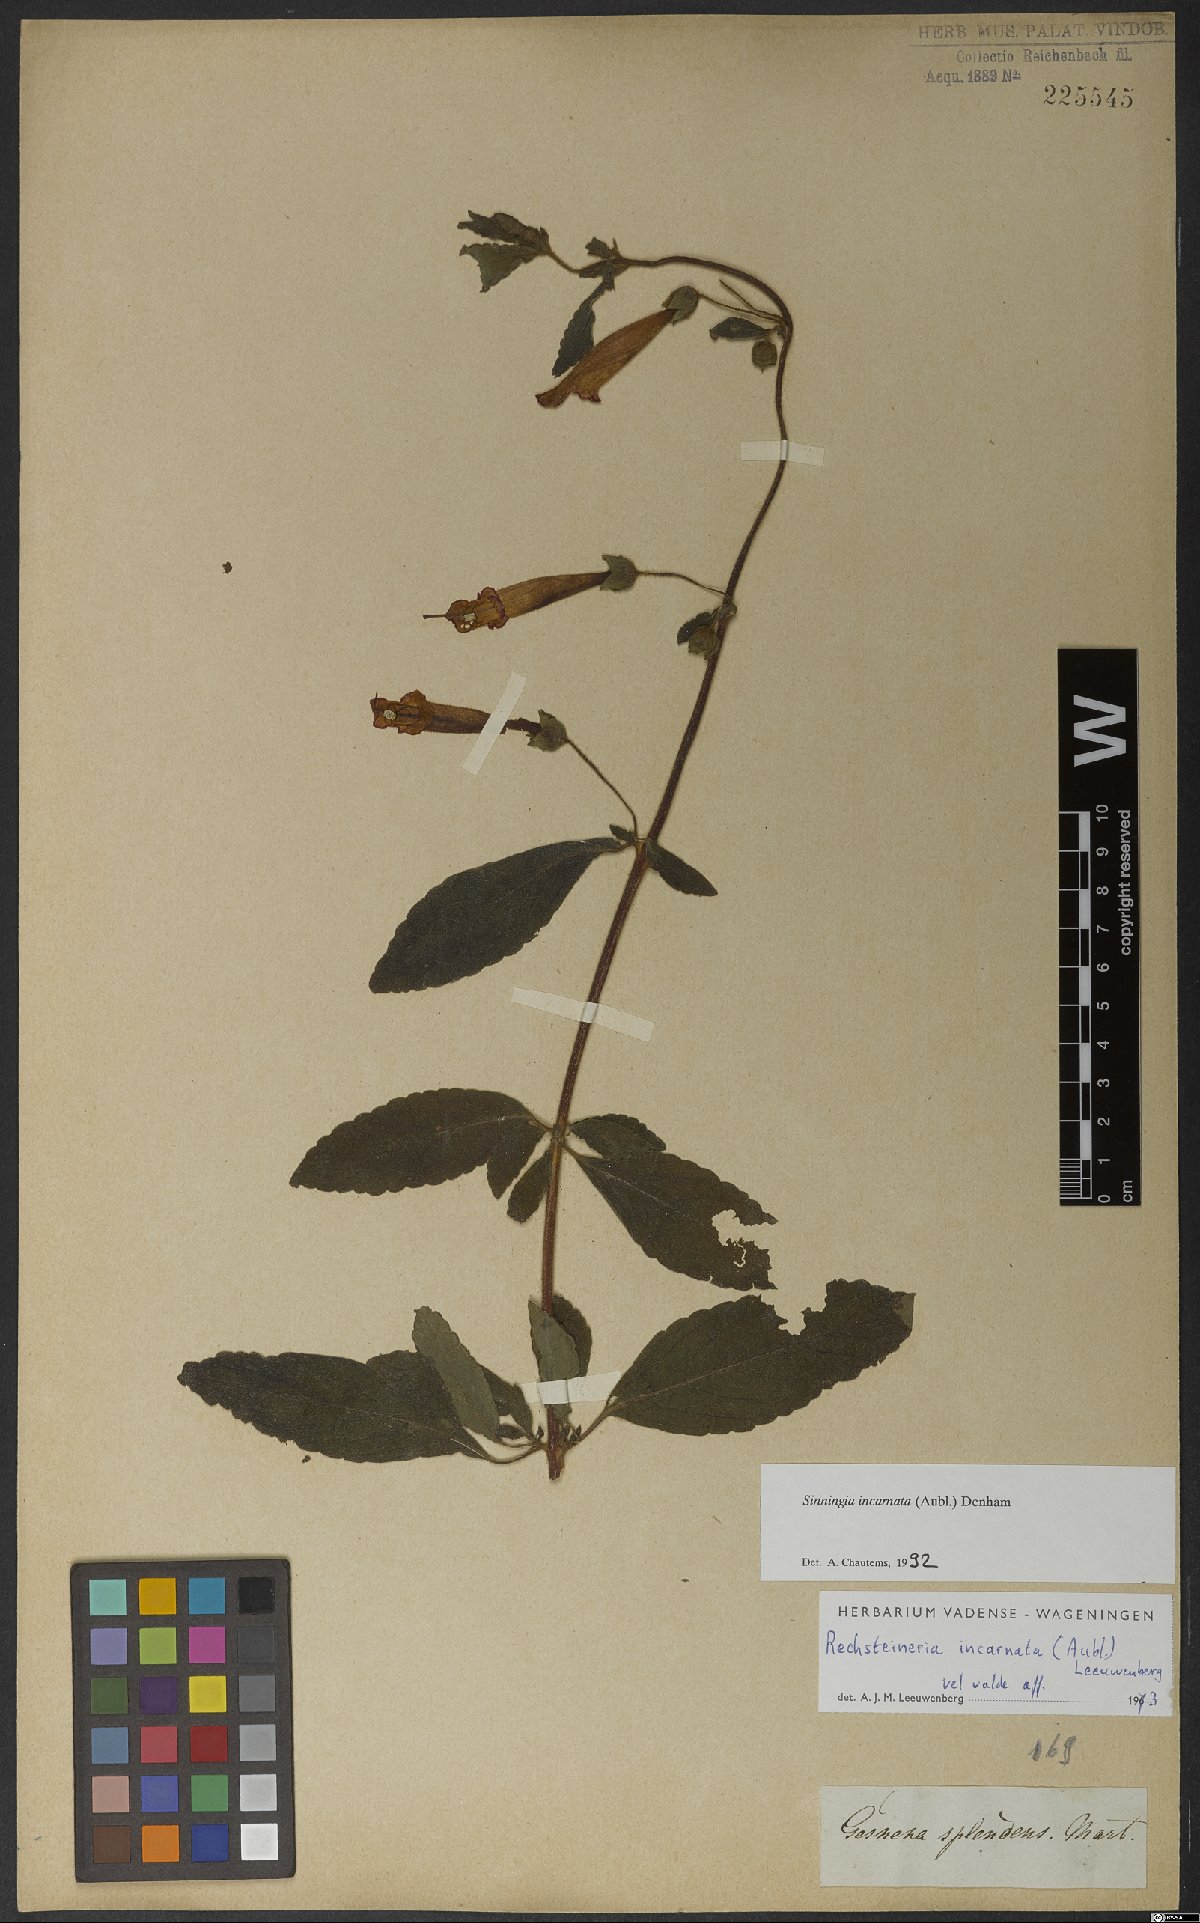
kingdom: Plantae
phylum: Tracheophyta
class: Magnoliopsida
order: Lamiales
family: Gesneriaceae
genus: Sinningia
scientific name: Sinningia incarnata
